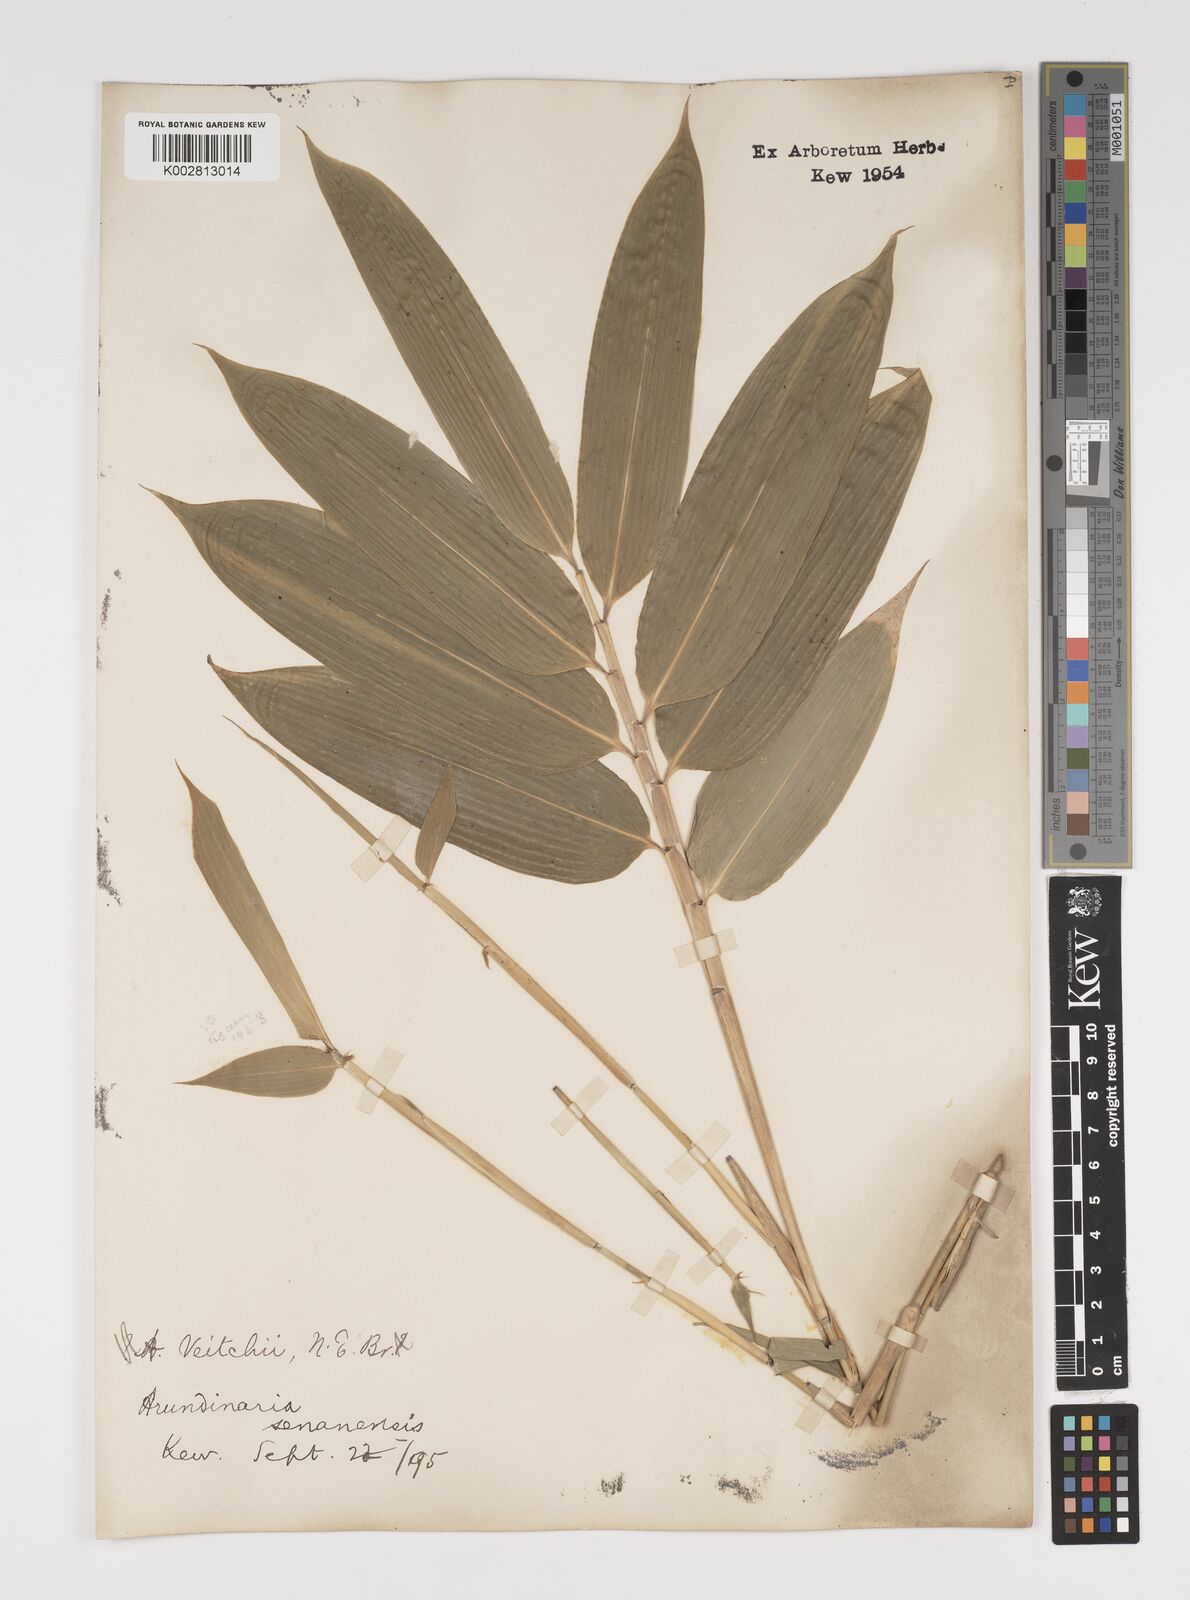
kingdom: Plantae
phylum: Tracheophyta
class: Liliopsida
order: Poales
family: Poaceae
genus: Sasa
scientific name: Sasa veitchii
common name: Veitch's bamboo
